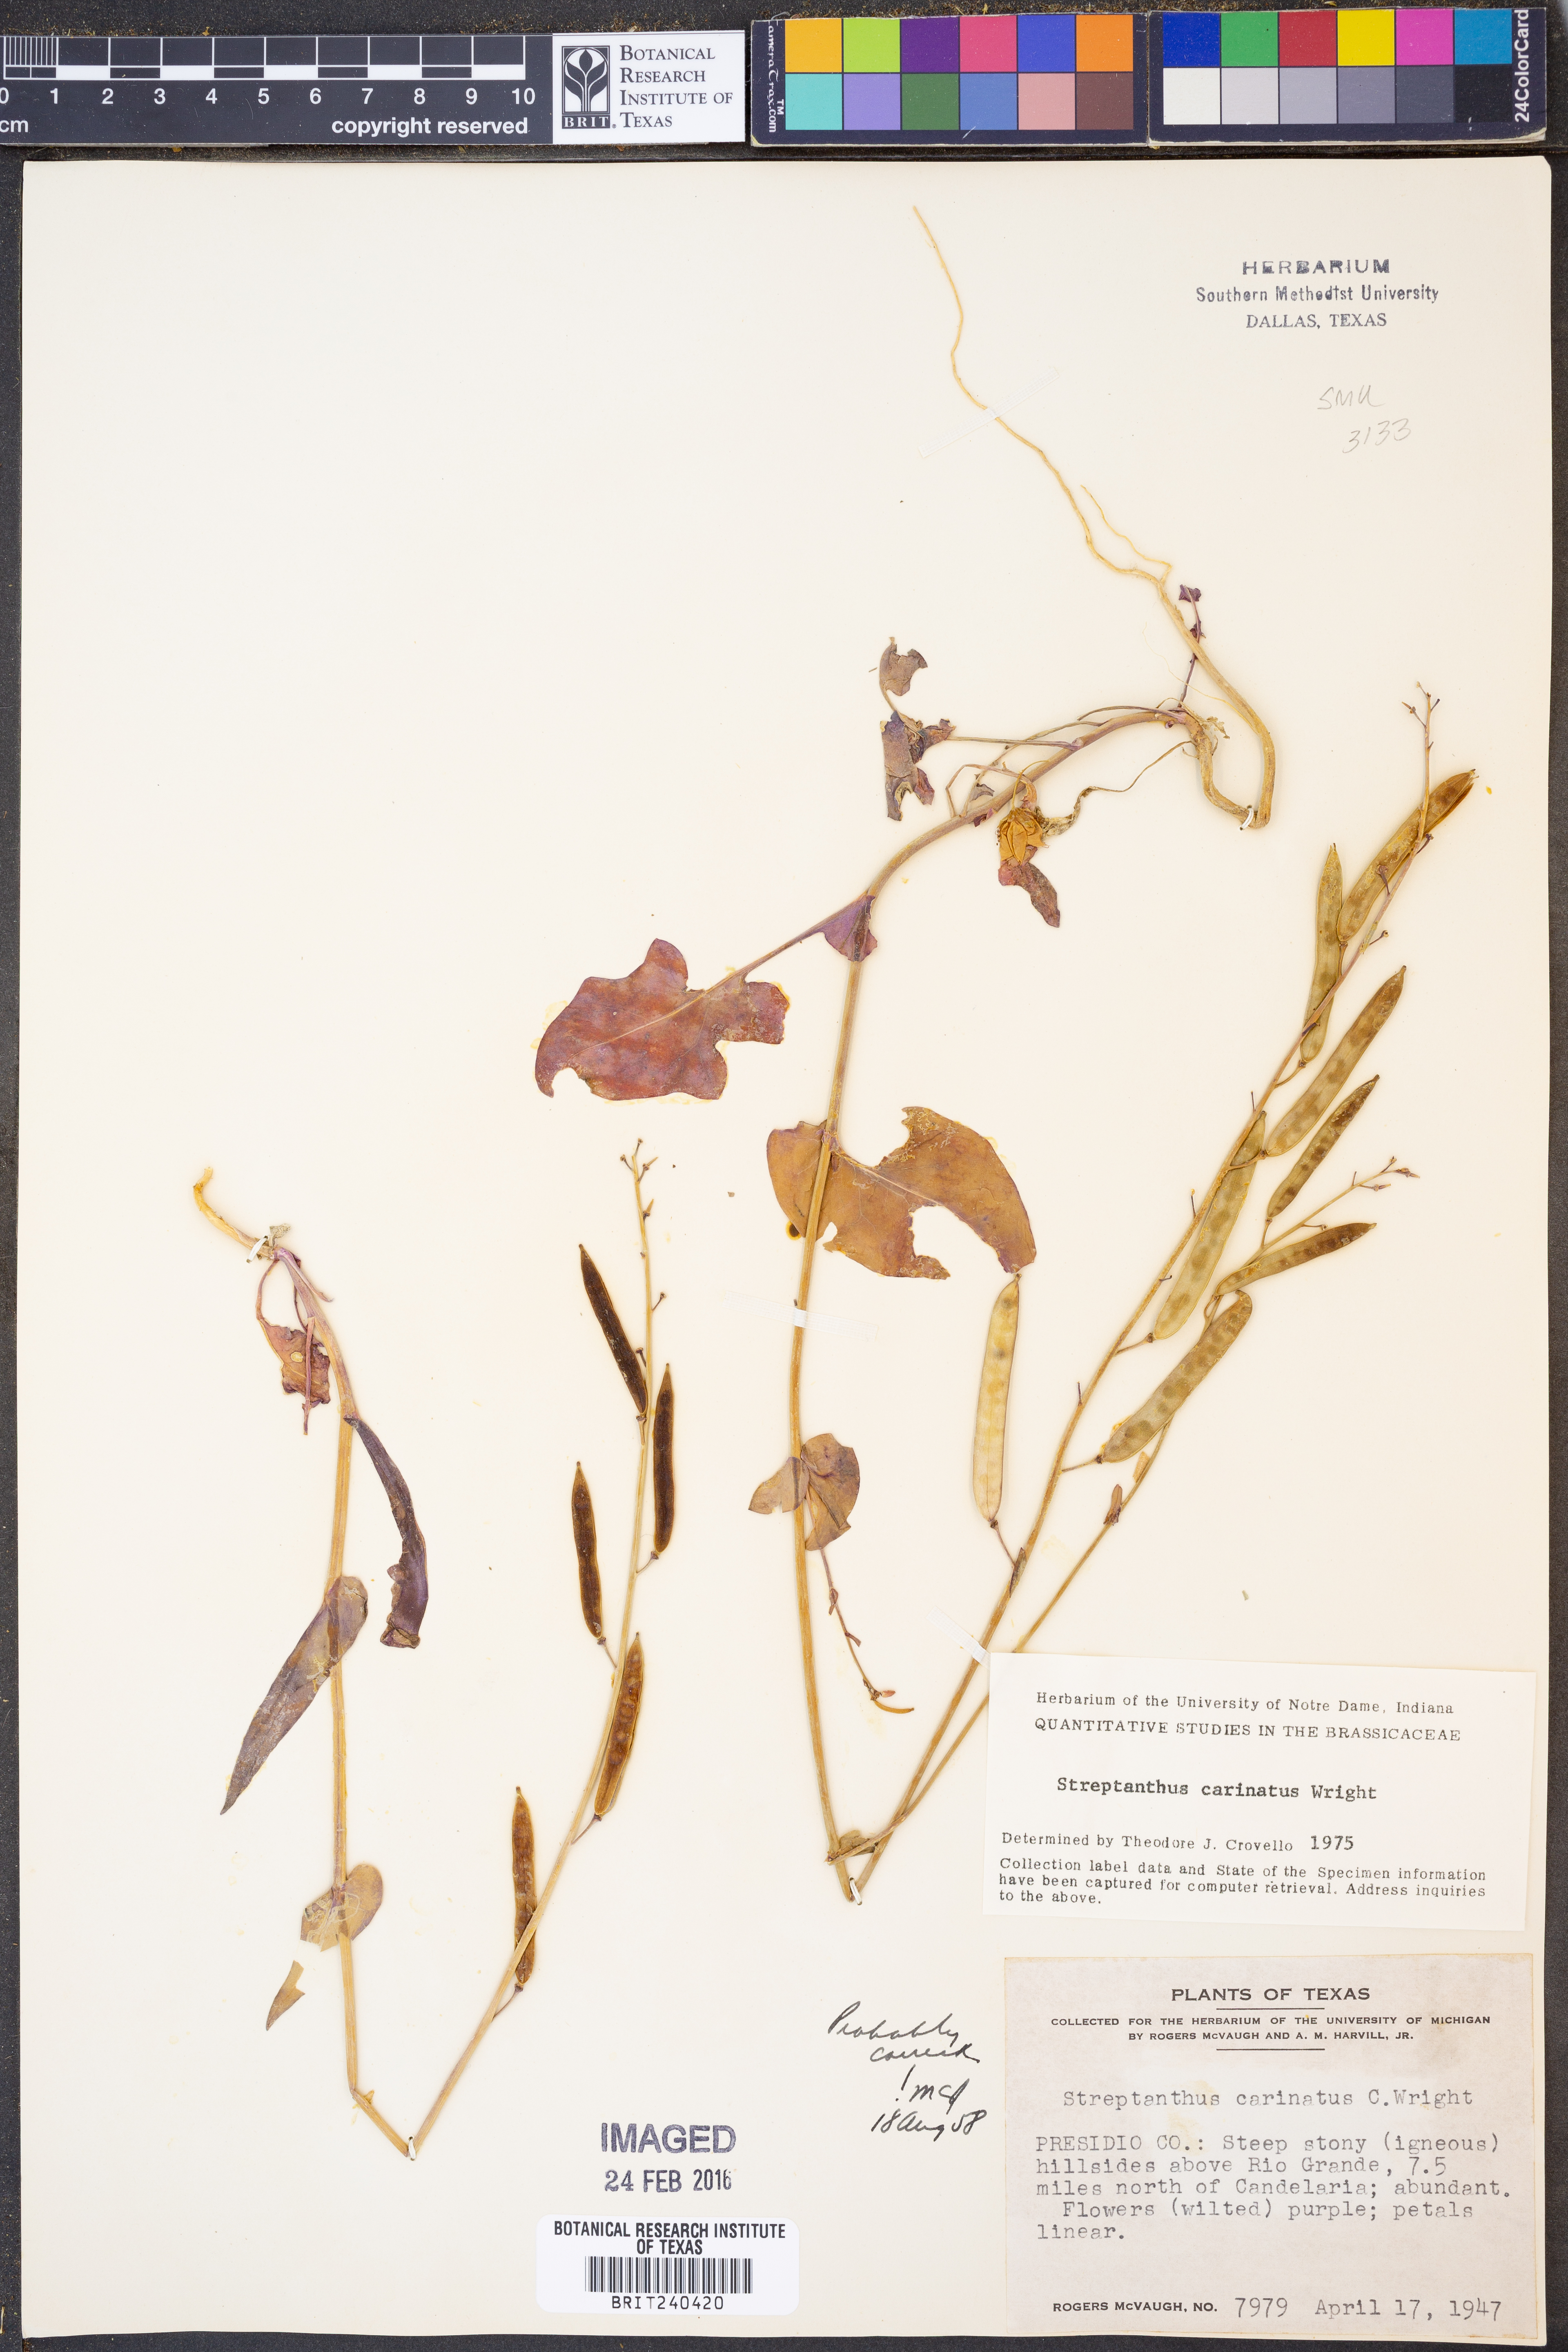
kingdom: Plantae
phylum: Tracheophyta
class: Magnoliopsida
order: Brassicales
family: Brassicaceae
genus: Streptanthus
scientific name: Streptanthus carinatus
